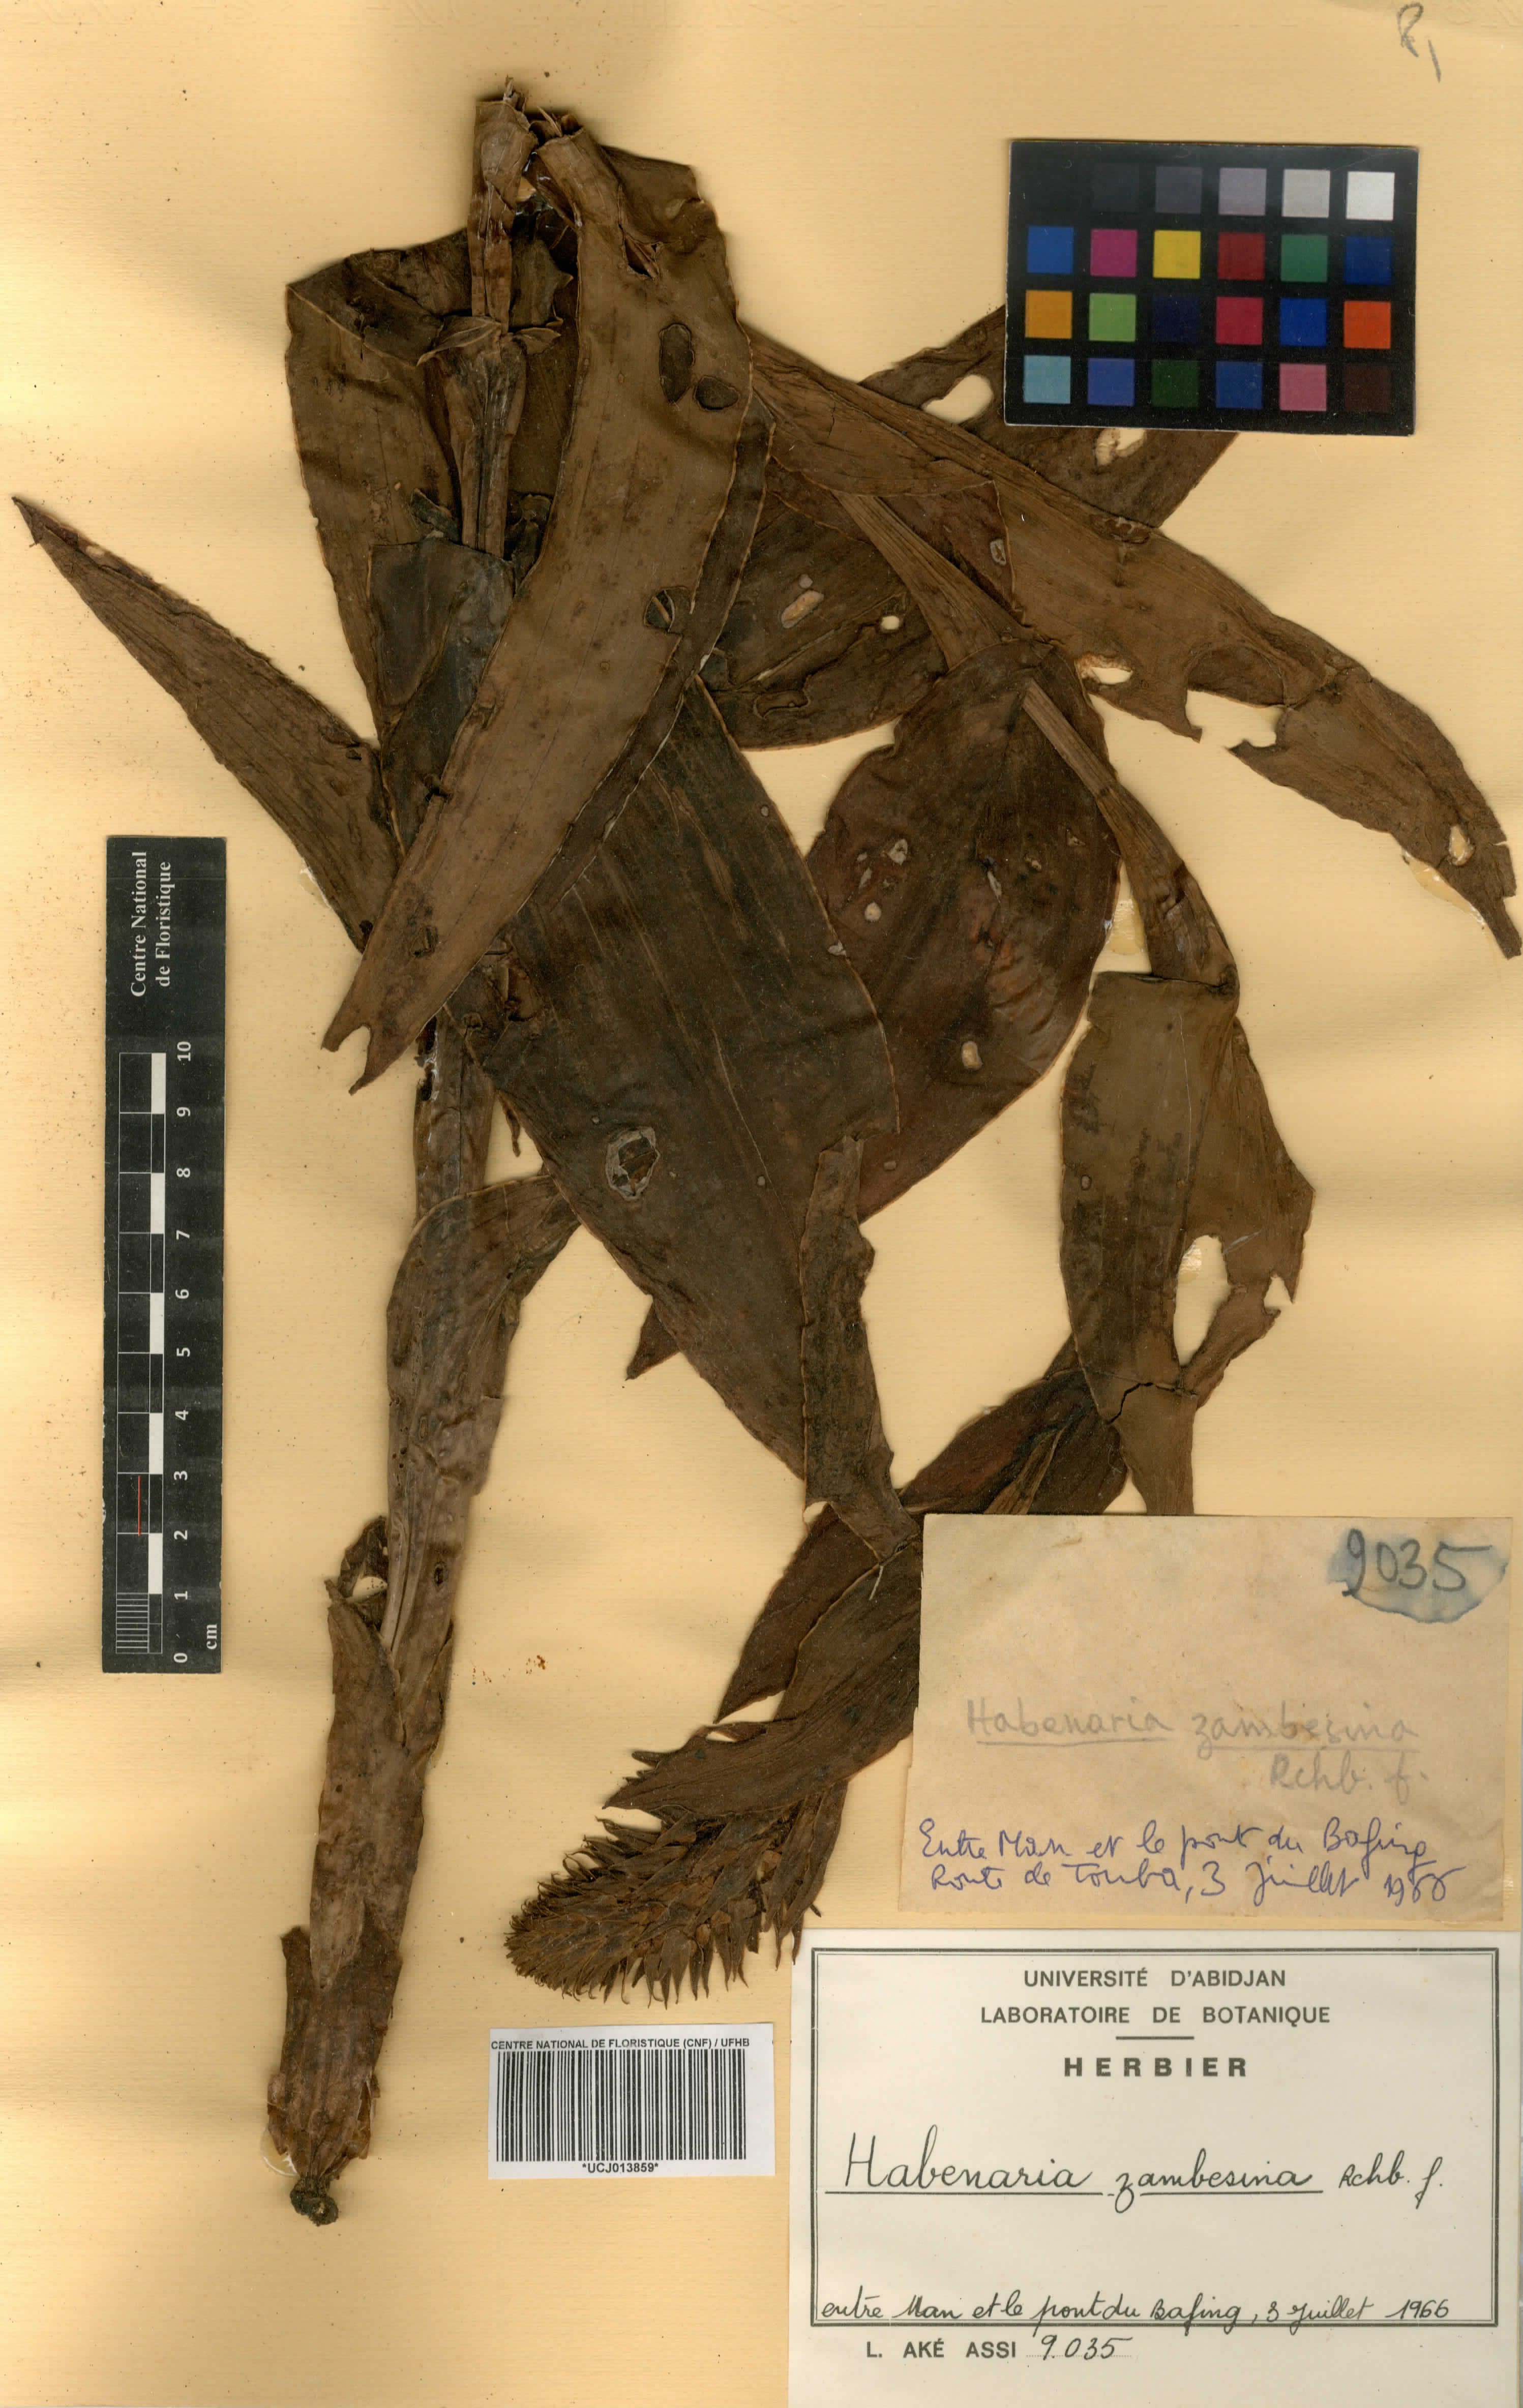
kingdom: Plantae
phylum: Tracheophyta
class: Liliopsida
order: Asparagales
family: Orchidaceae
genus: Habenaria
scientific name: Habenaria zambesina
